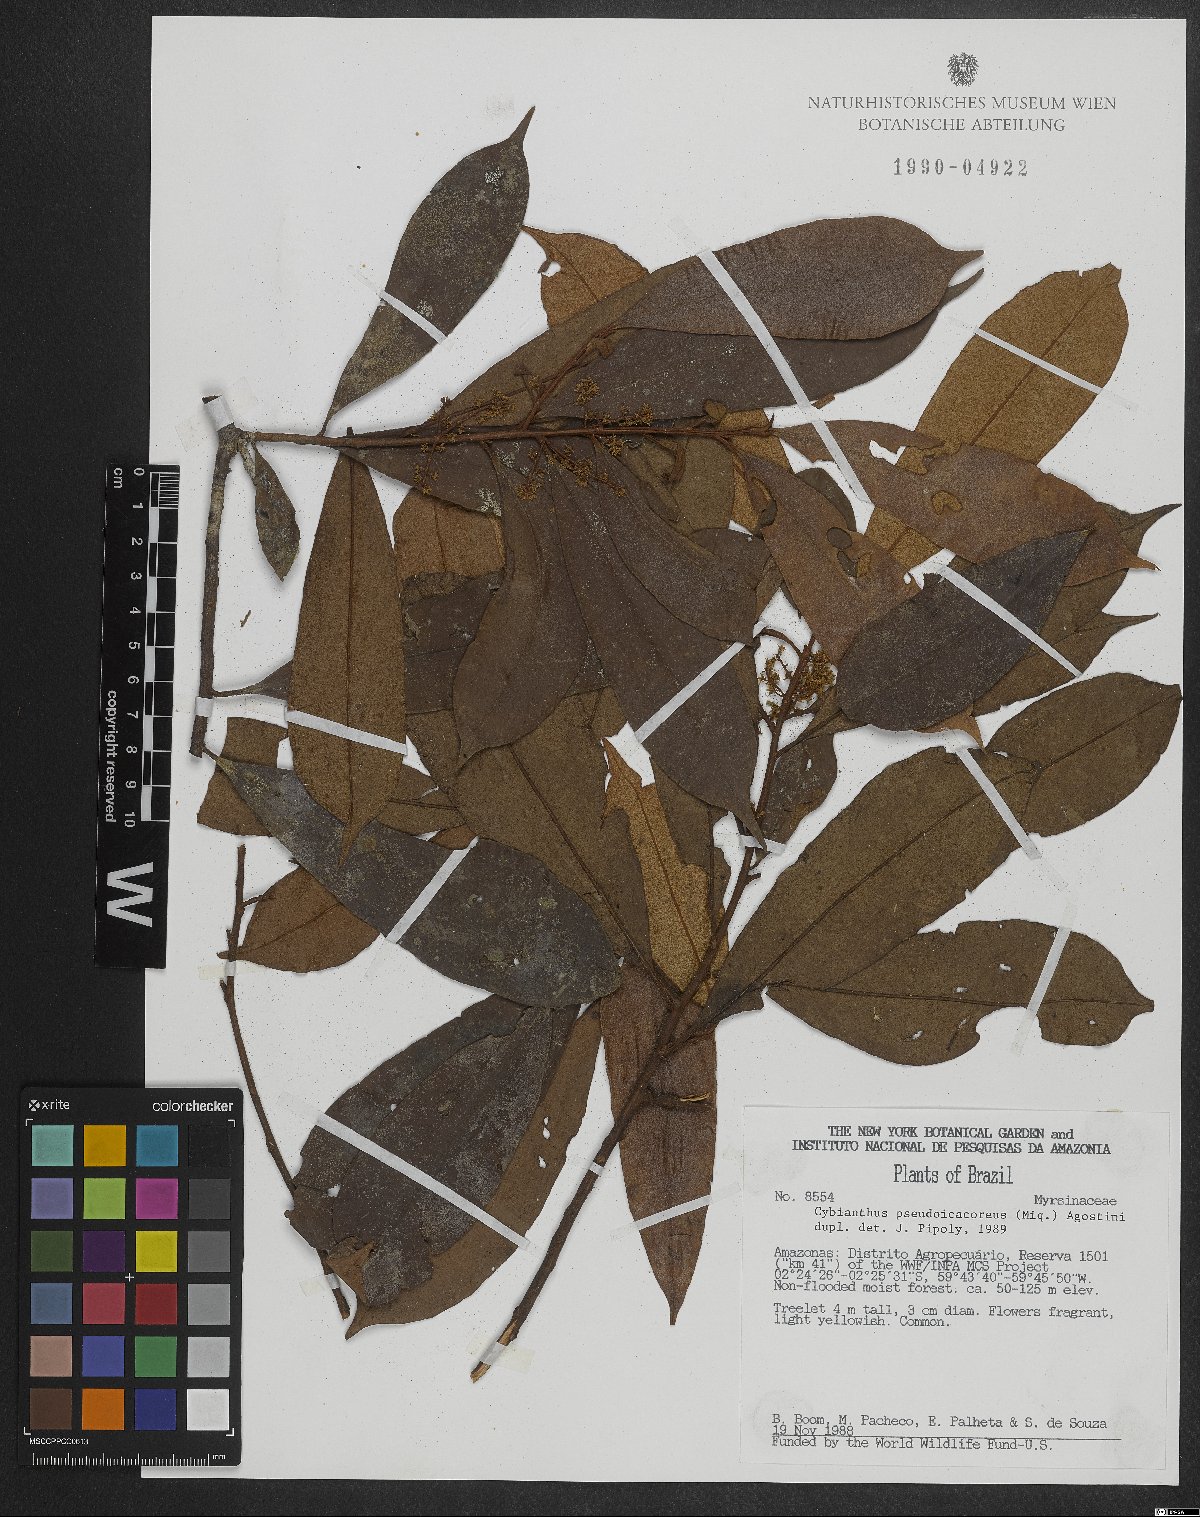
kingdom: Plantae
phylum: Tracheophyta
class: Magnoliopsida
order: Ericales
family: Primulaceae
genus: Cybianthus
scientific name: Cybianthus guyanensis
